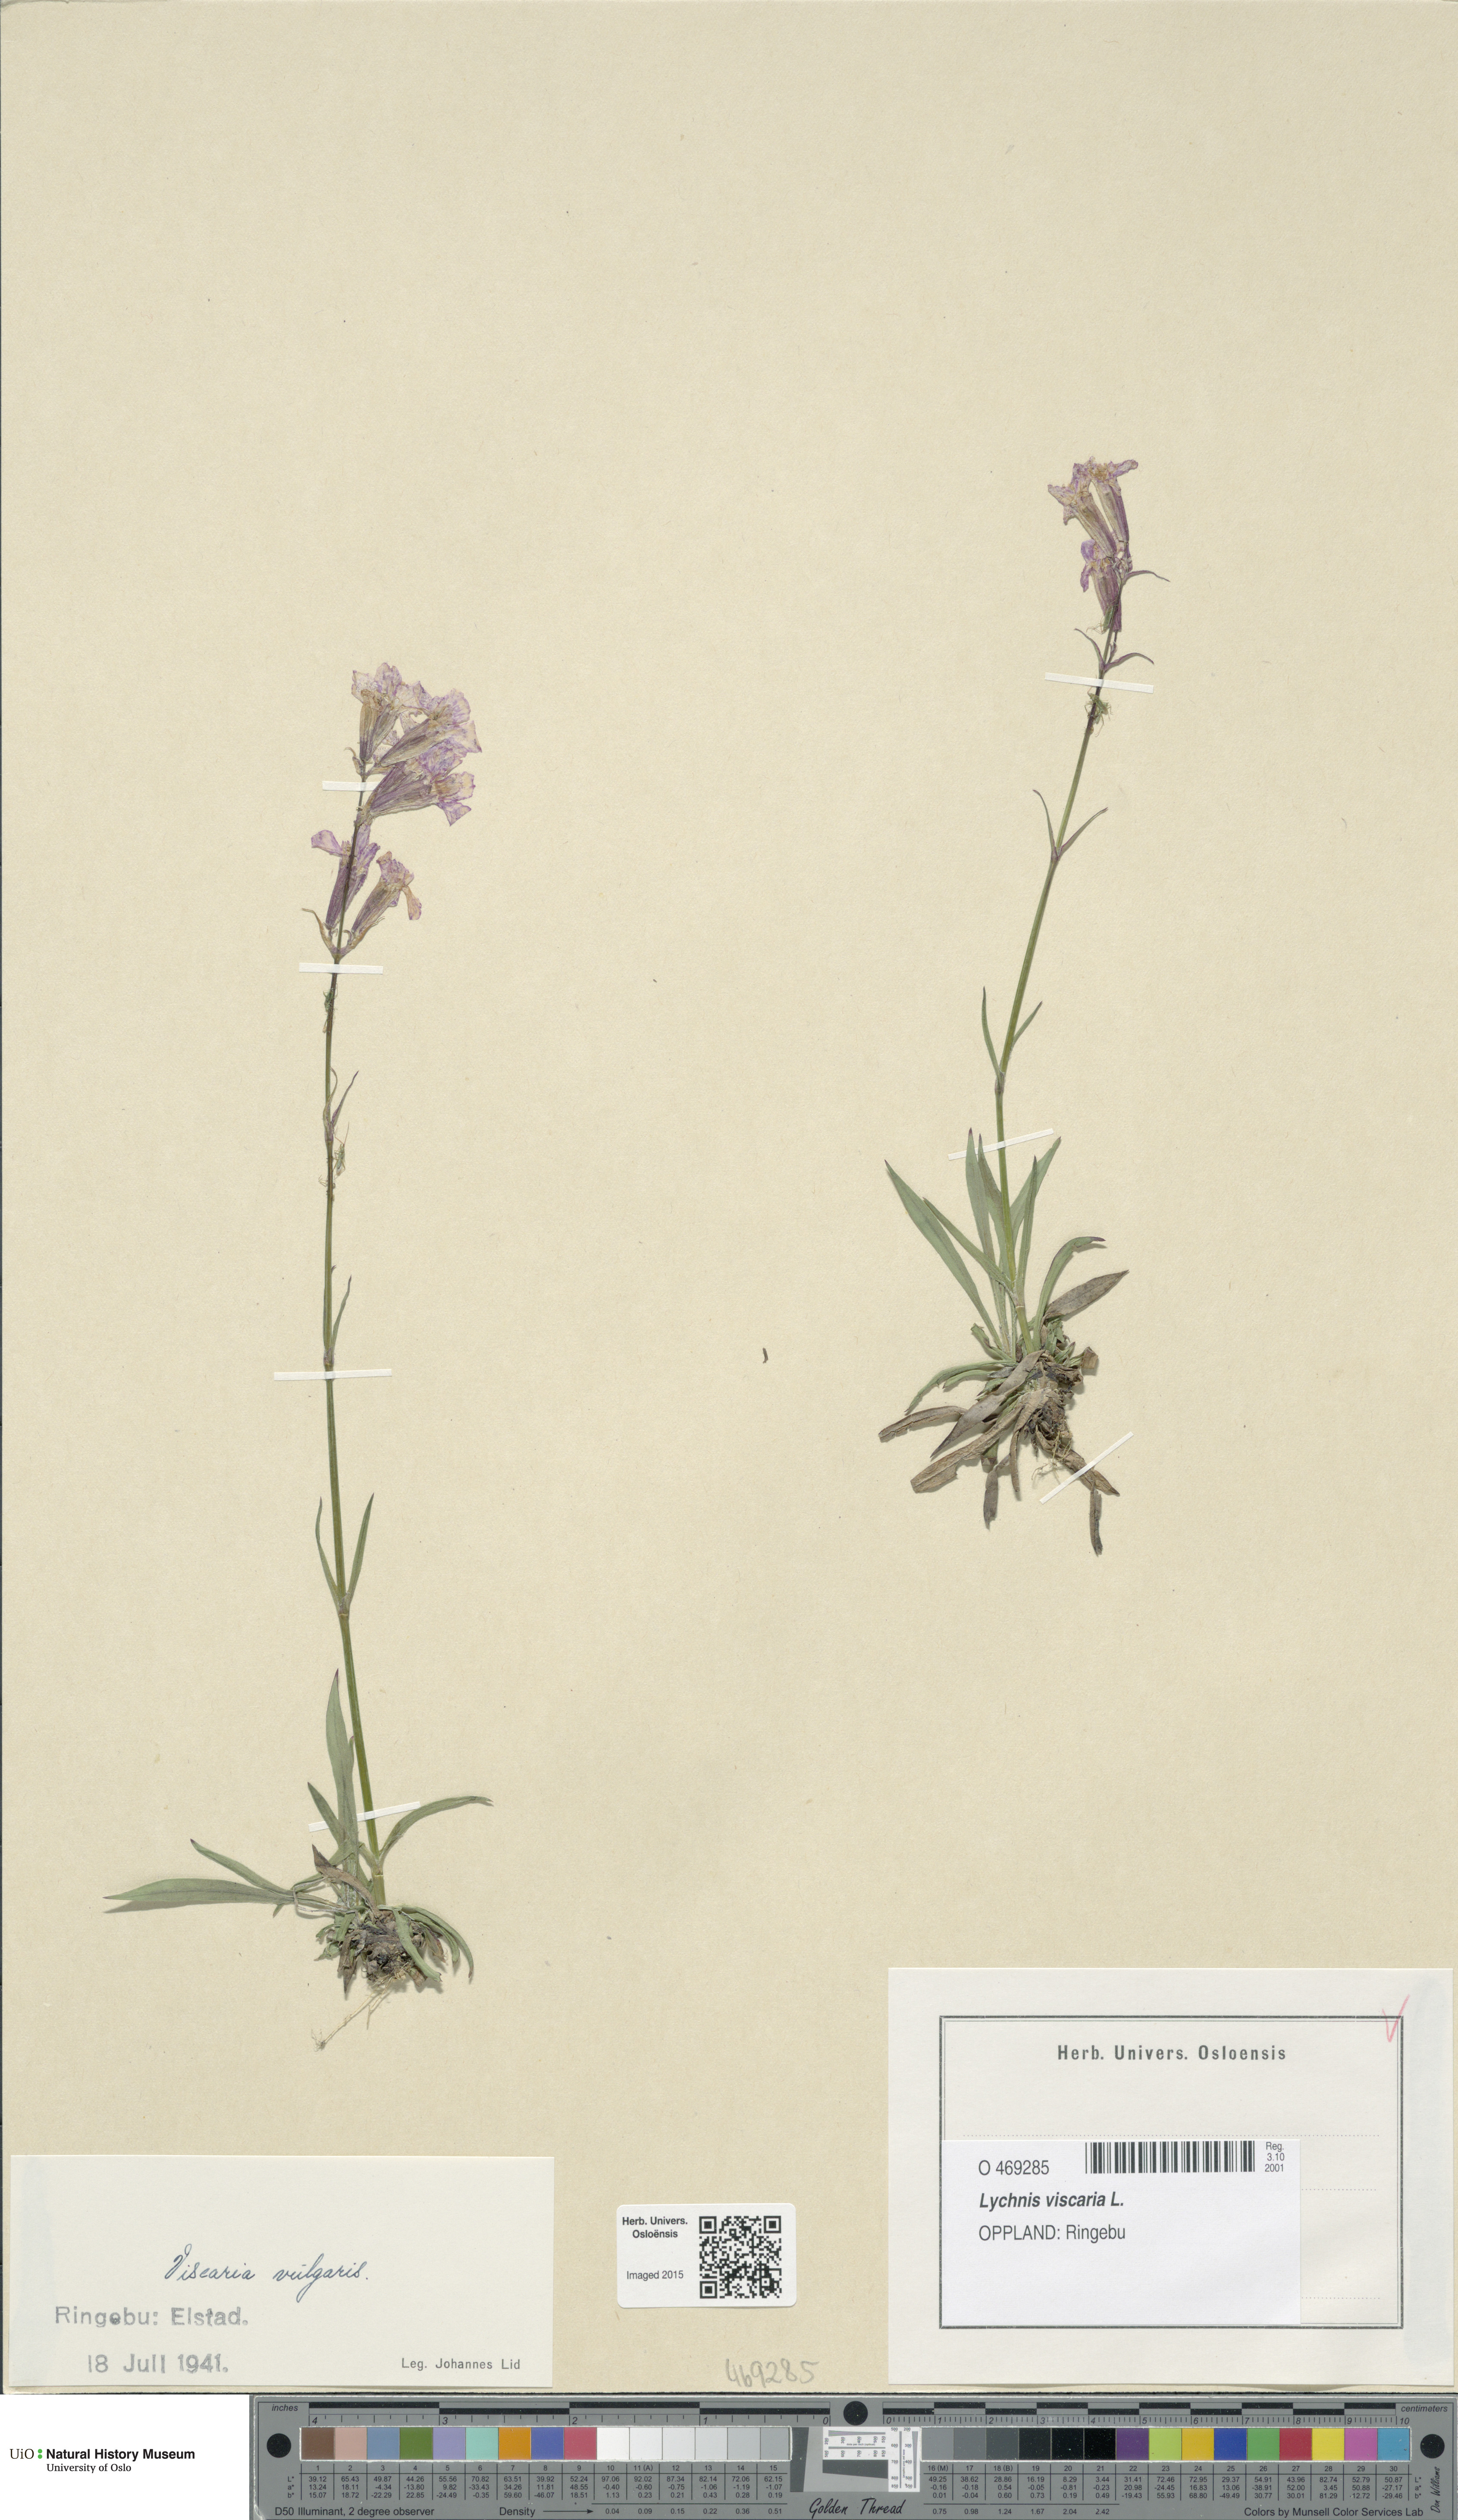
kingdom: Plantae
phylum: Tracheophyta
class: Magnoliopsida
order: Caryophyllales
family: Caryophyllaceae
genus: Viscaria
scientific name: Viscaria vulgaris
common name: Clammy campion
